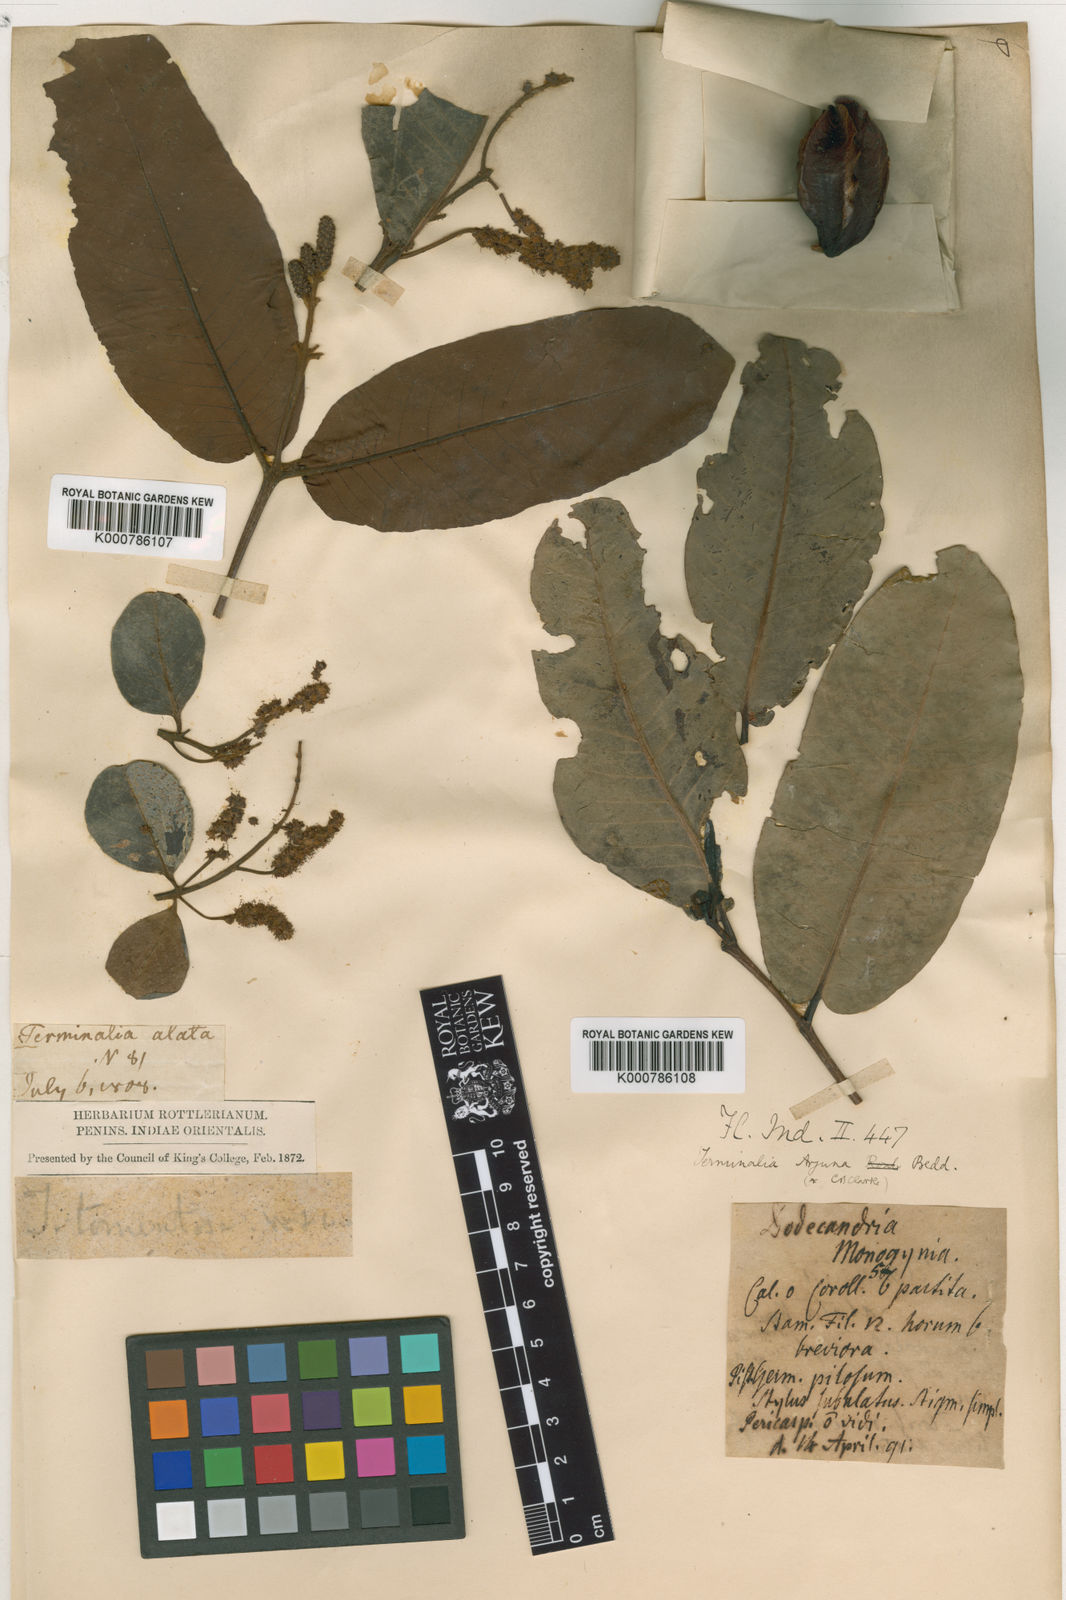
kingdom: Plantae
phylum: Tracheophyta
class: Magnoliopsida
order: Myrtales
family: Combretaceae
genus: Terminalia
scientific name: Terminalia arjuna
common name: Arjun
